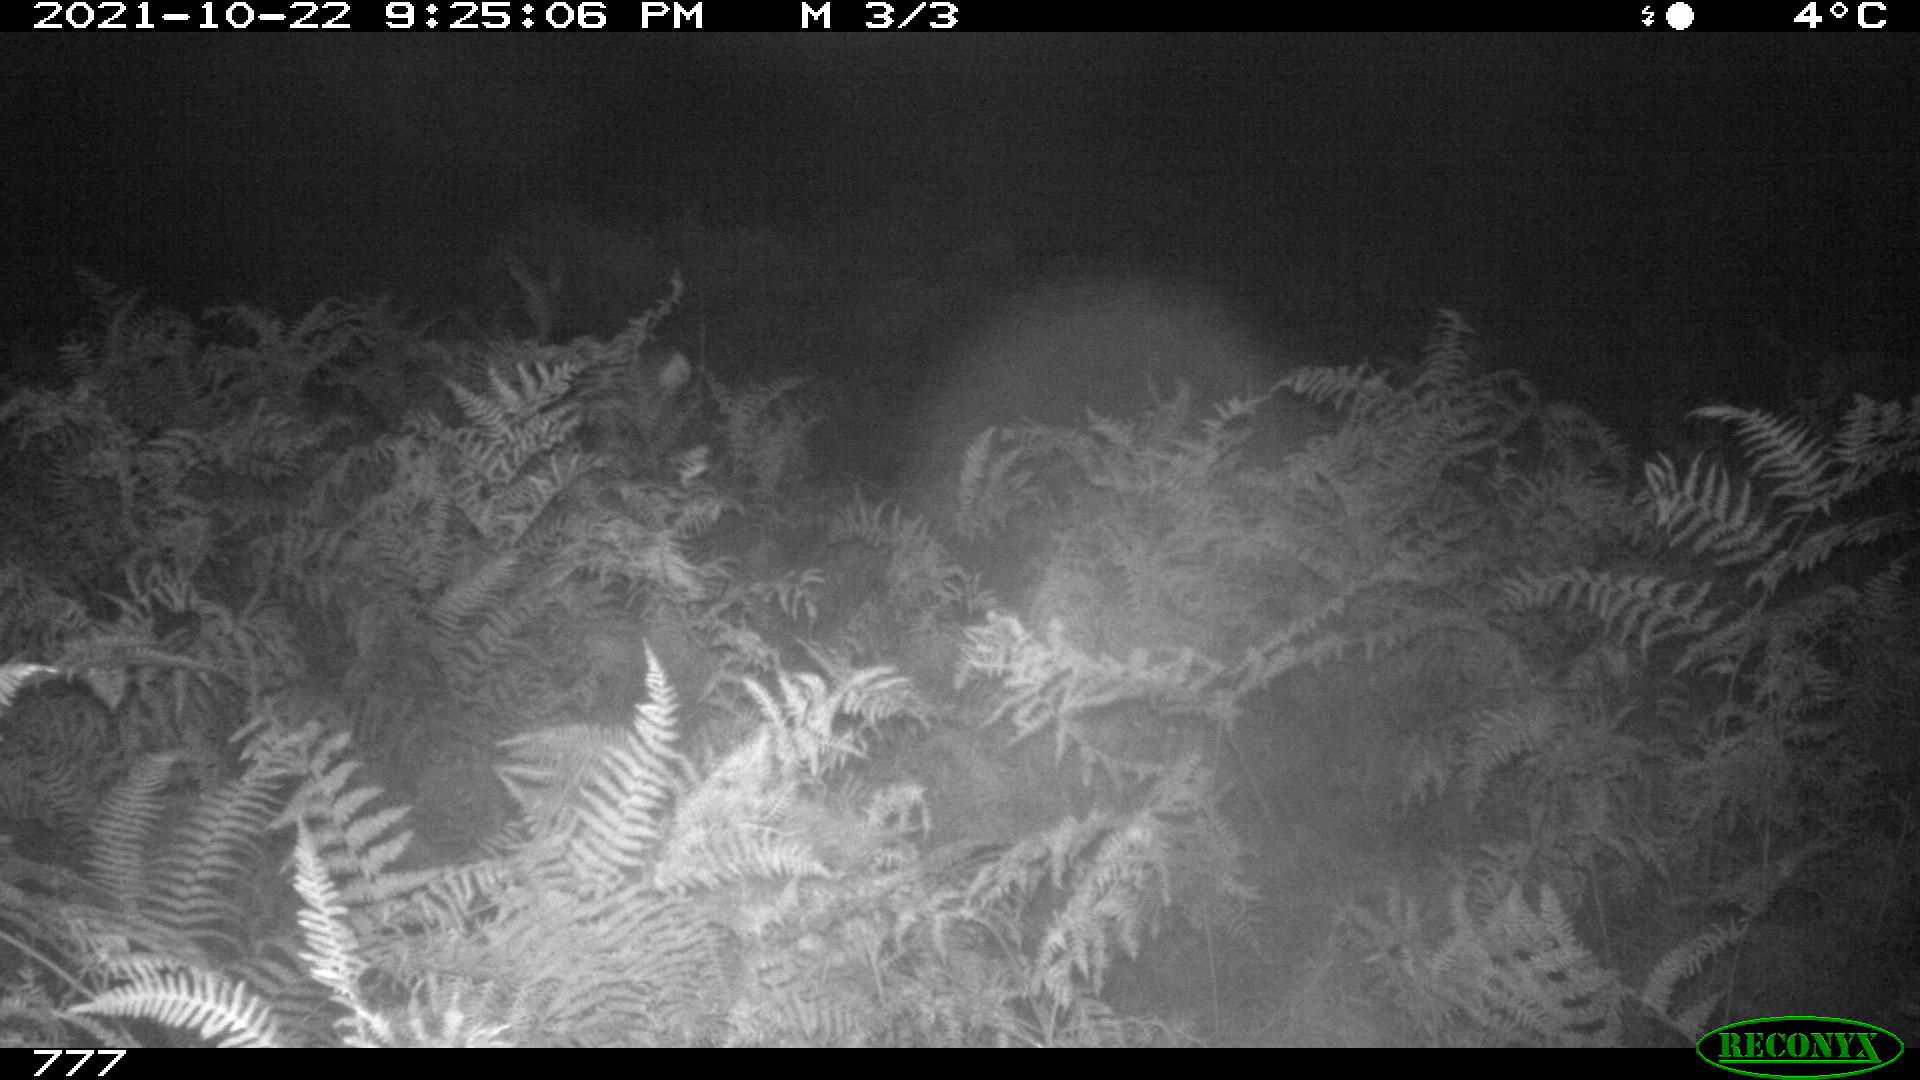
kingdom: Animalia
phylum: Chordata
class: Mammalia
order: Artiodactyla
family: Cervidae
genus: Capreolus
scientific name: Capreolus capreolus
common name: Western roe deer
